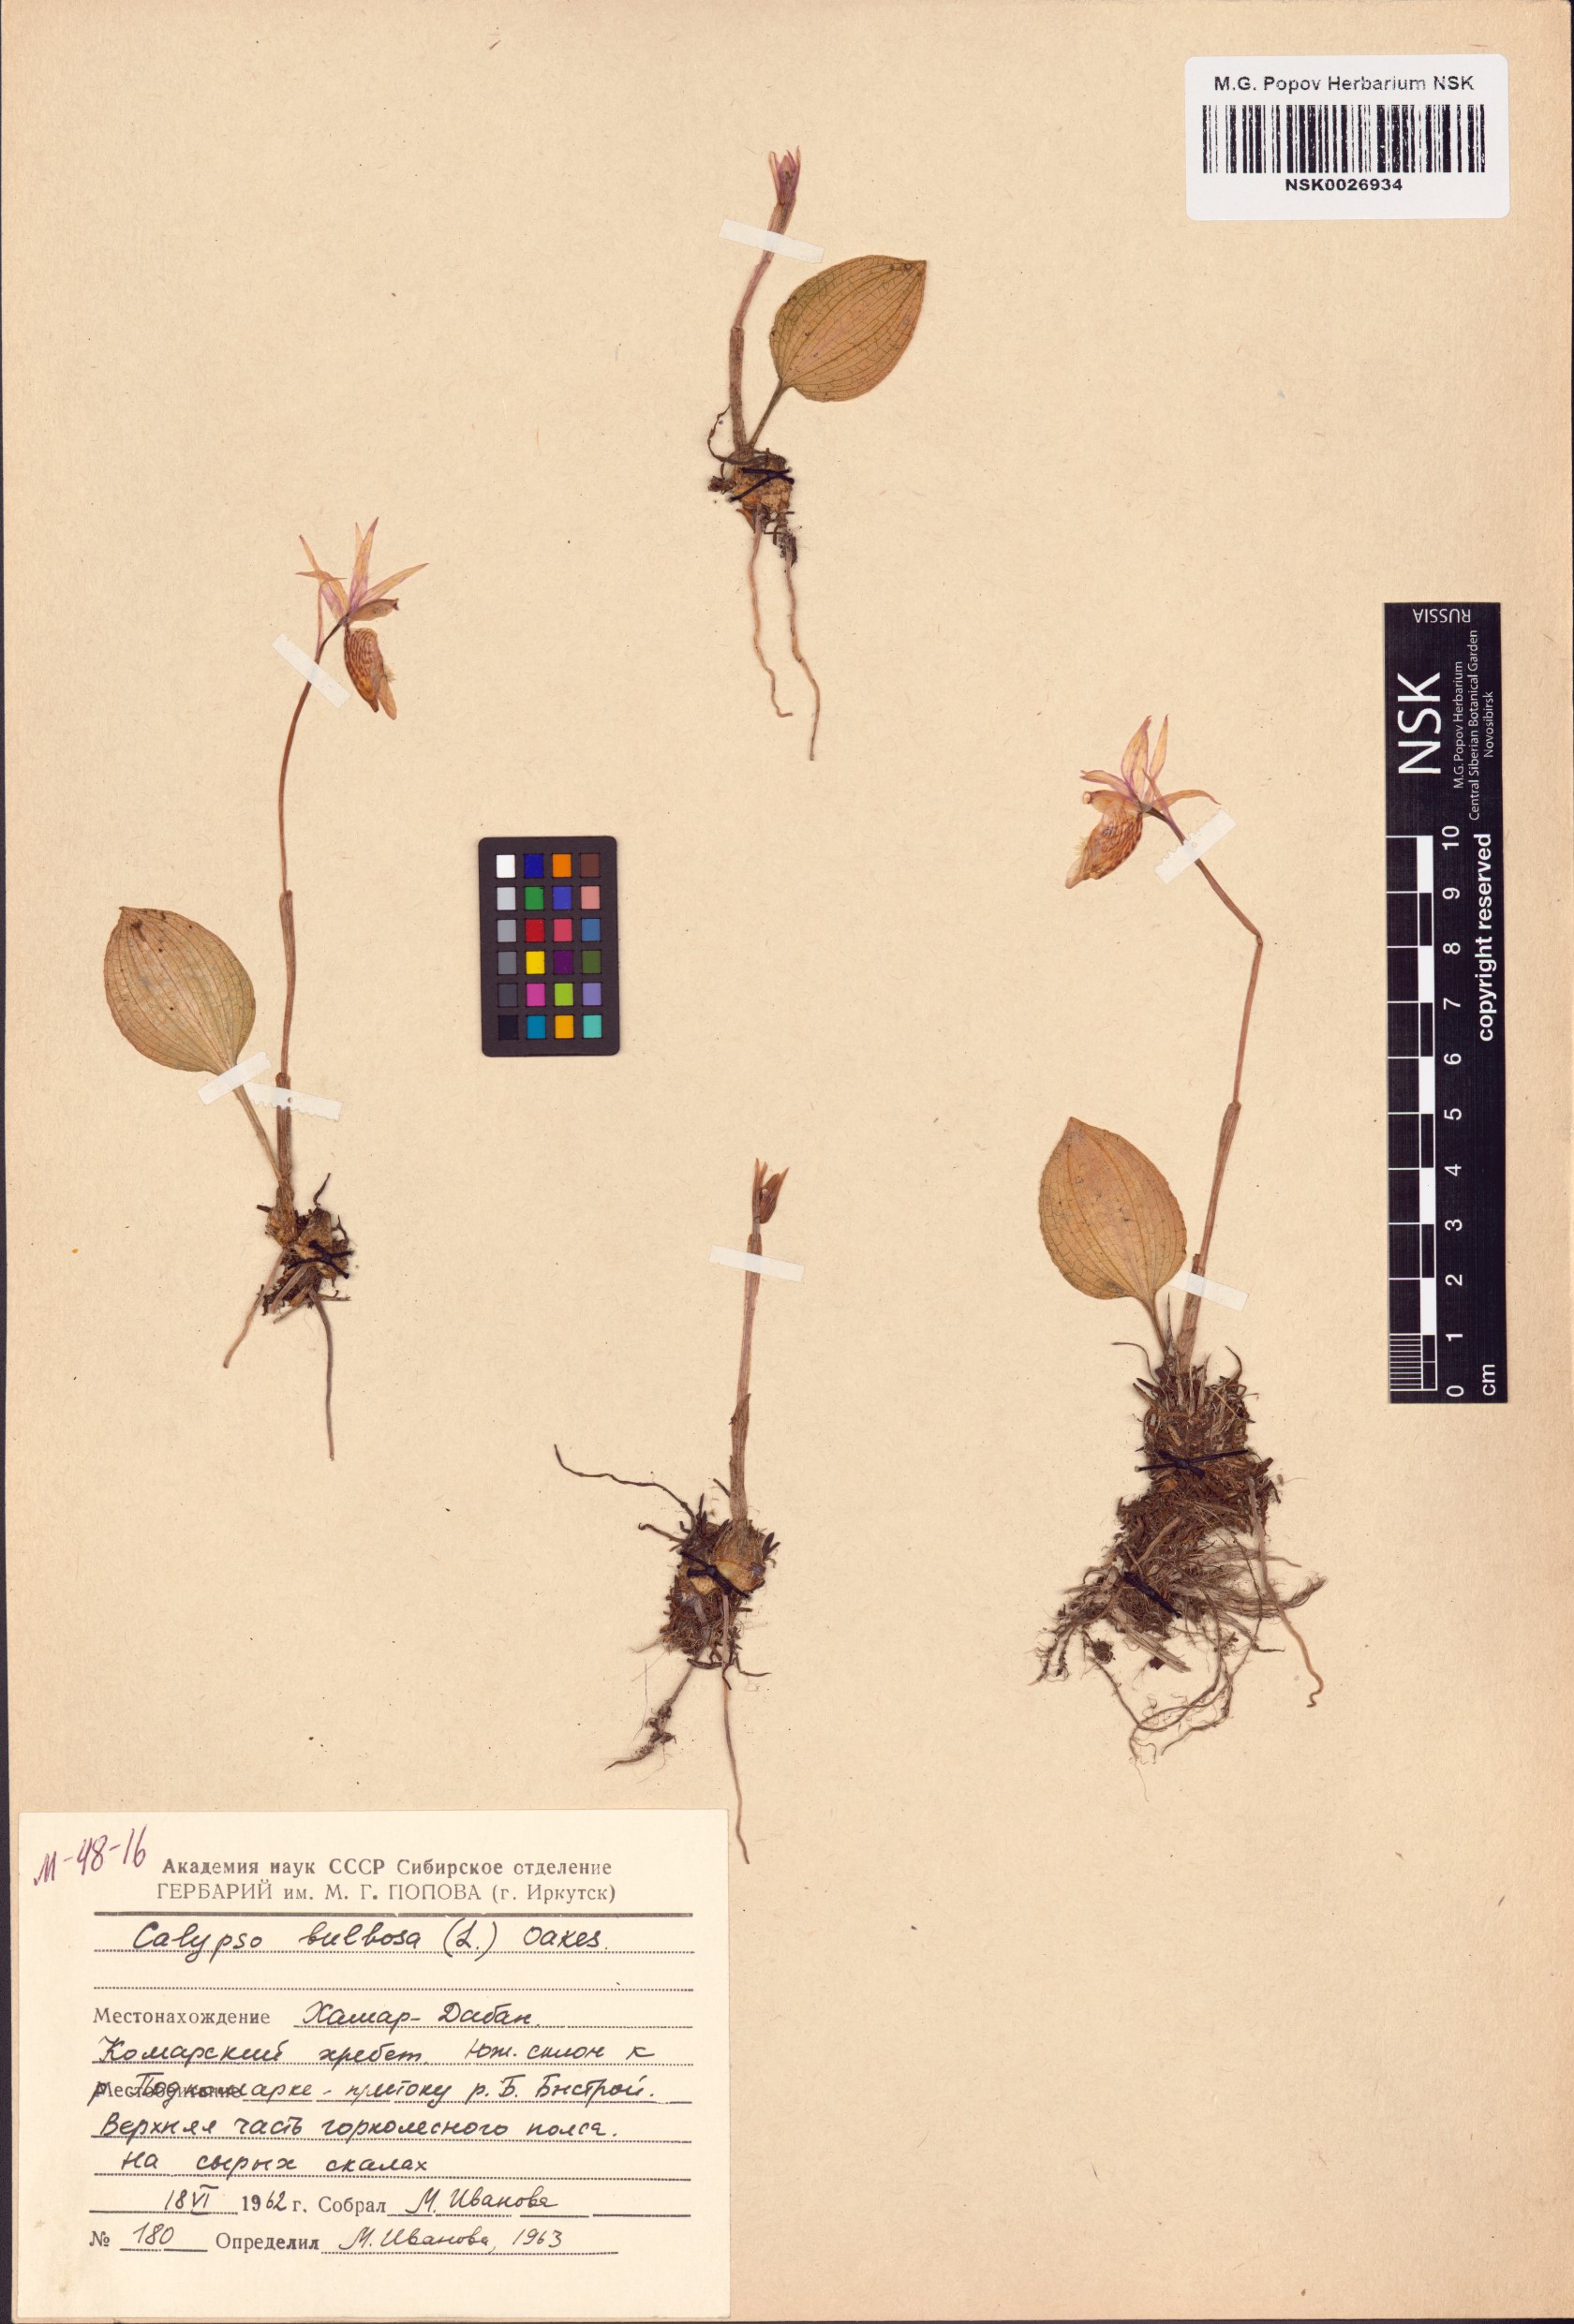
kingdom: Plantae
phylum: Tracheophyta
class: Liliopsida
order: Asparagales
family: Orchidaceae
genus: Calypso
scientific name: Calypso bulbosa
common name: Calypso
